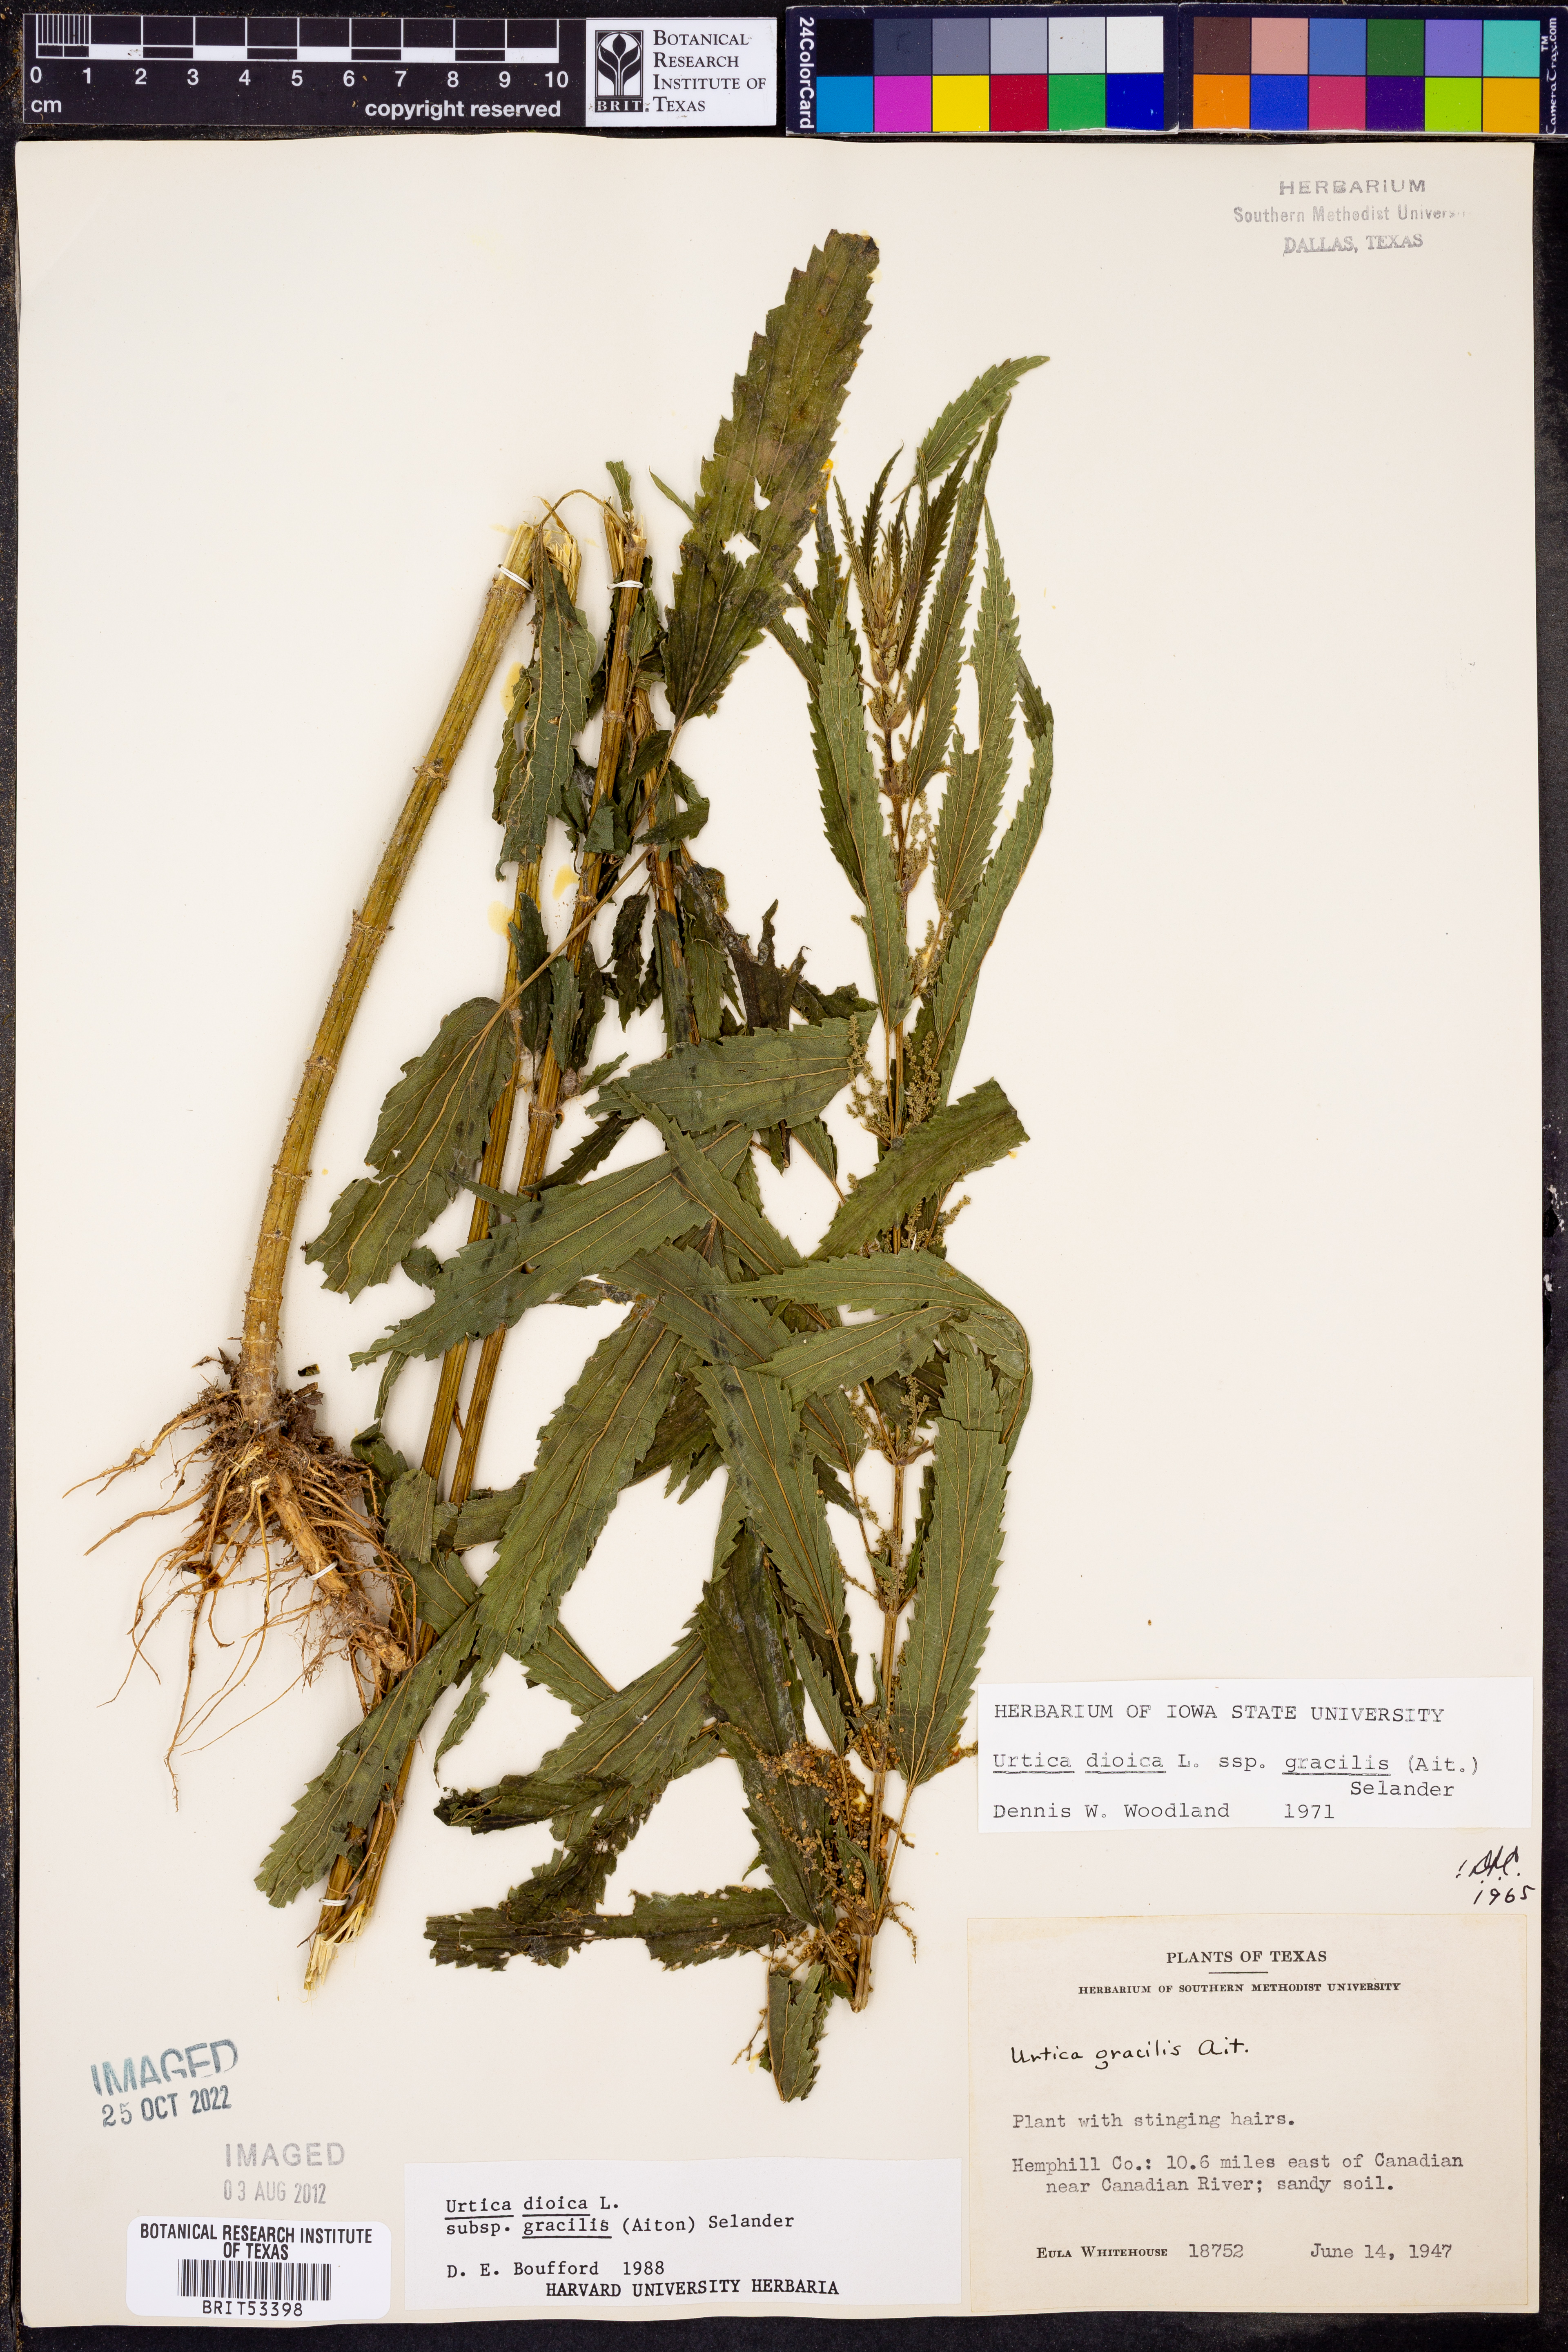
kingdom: Plantae
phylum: Tracheophyta
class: Magnoliopsida
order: Rosales
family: Urticaceae
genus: Urtica
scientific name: Urtica gracilis
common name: Slender stinging nettle
